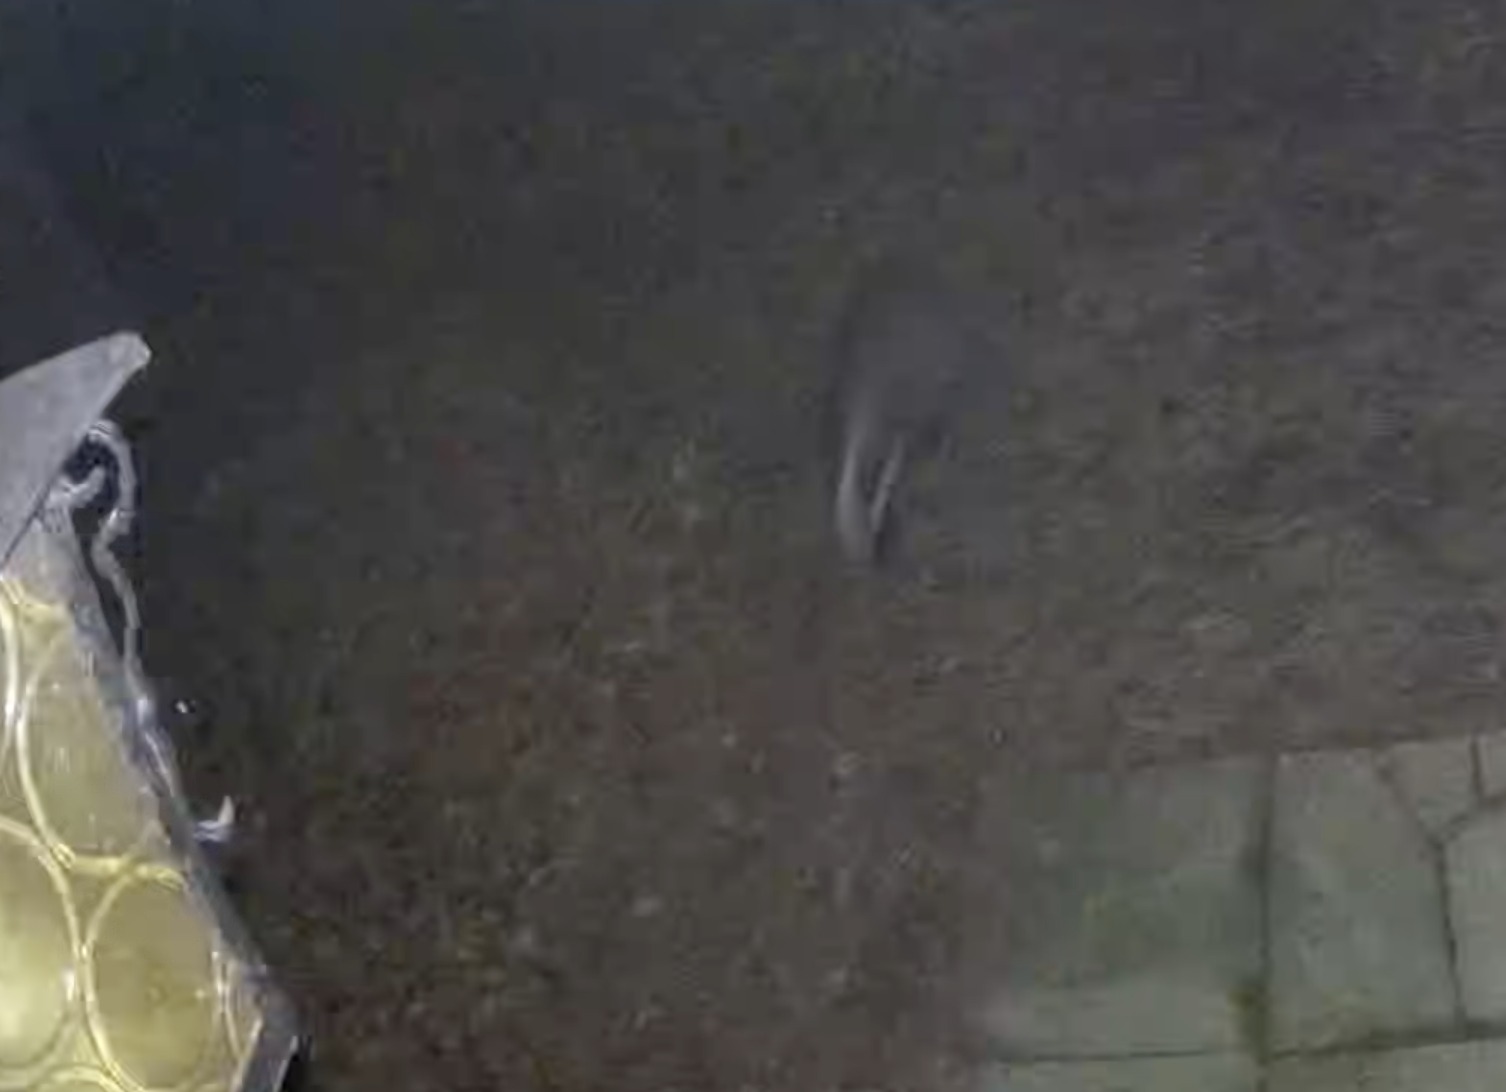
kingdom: Animalia
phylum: Chordata
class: Mammalia
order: Carnivora
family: Mustelidae
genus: Meles
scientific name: Meles meles
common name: Grævling
